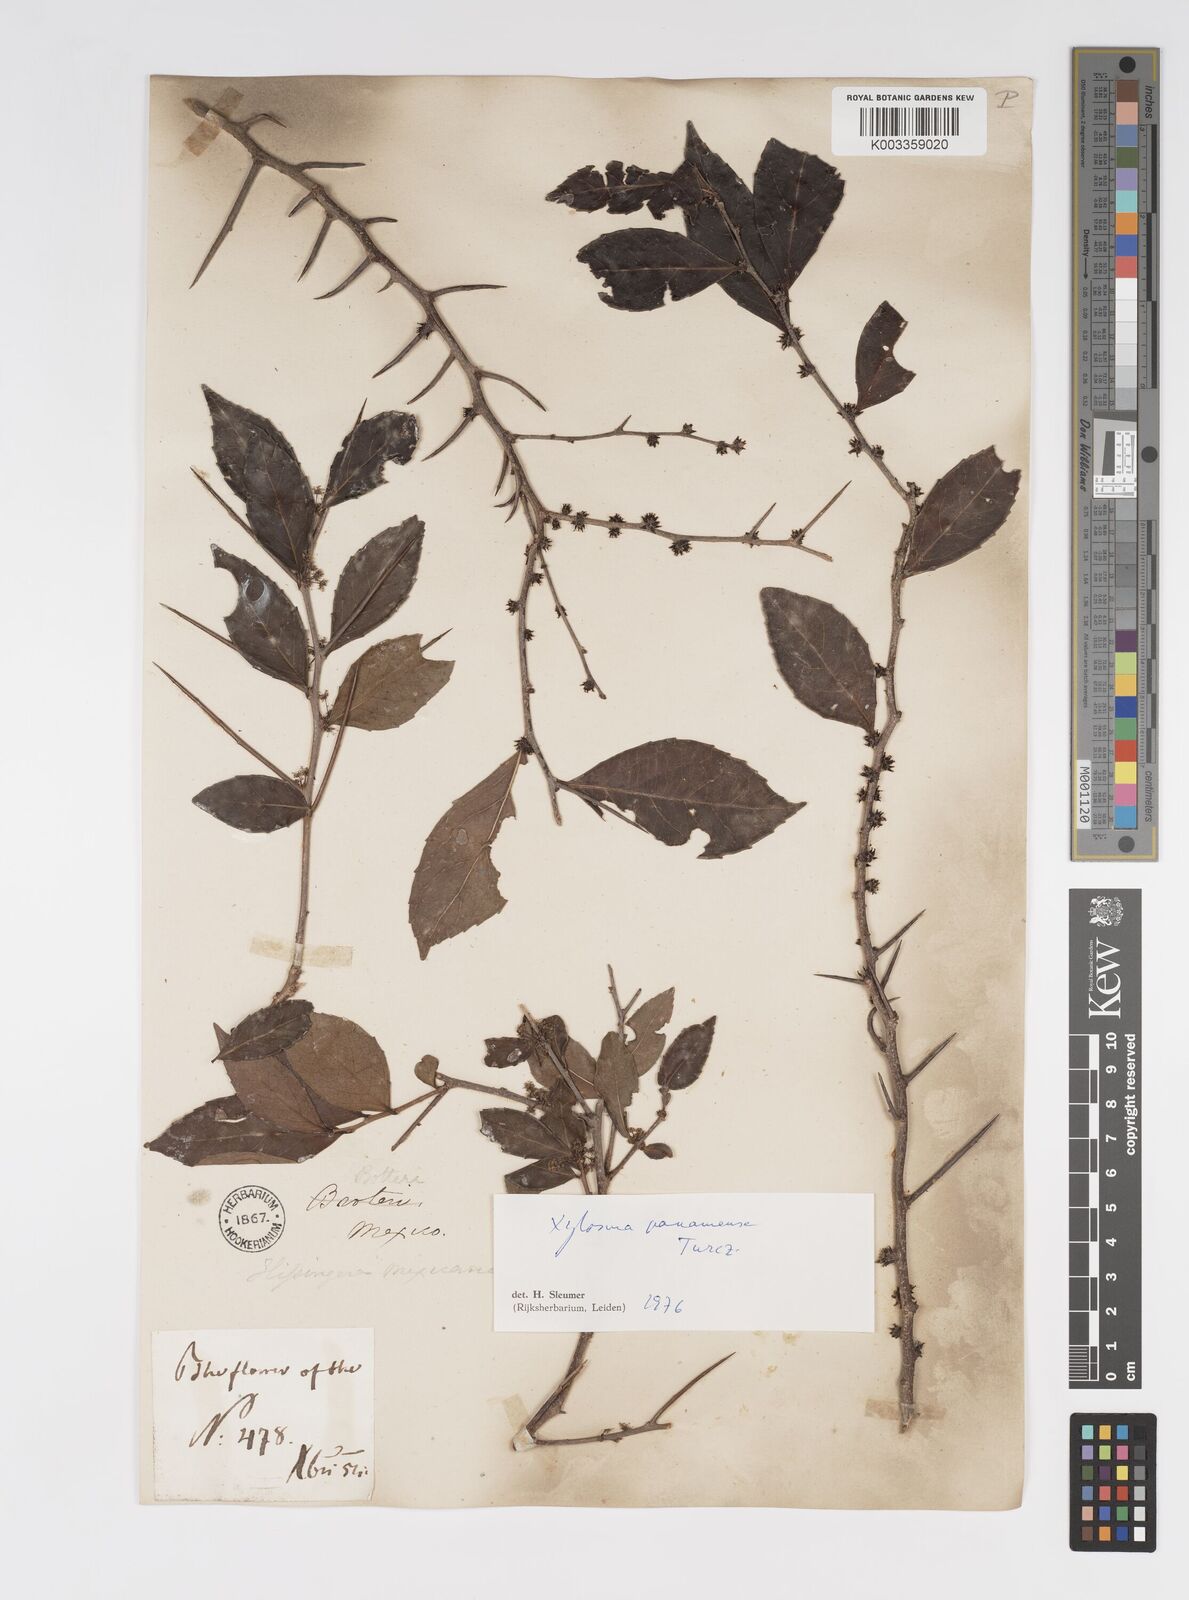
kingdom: Plantae
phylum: Tracheophyta
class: Magnoliopsida
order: Malpighiales
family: Salicaceae
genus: Xylosma
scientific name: Xylosma panamensis
